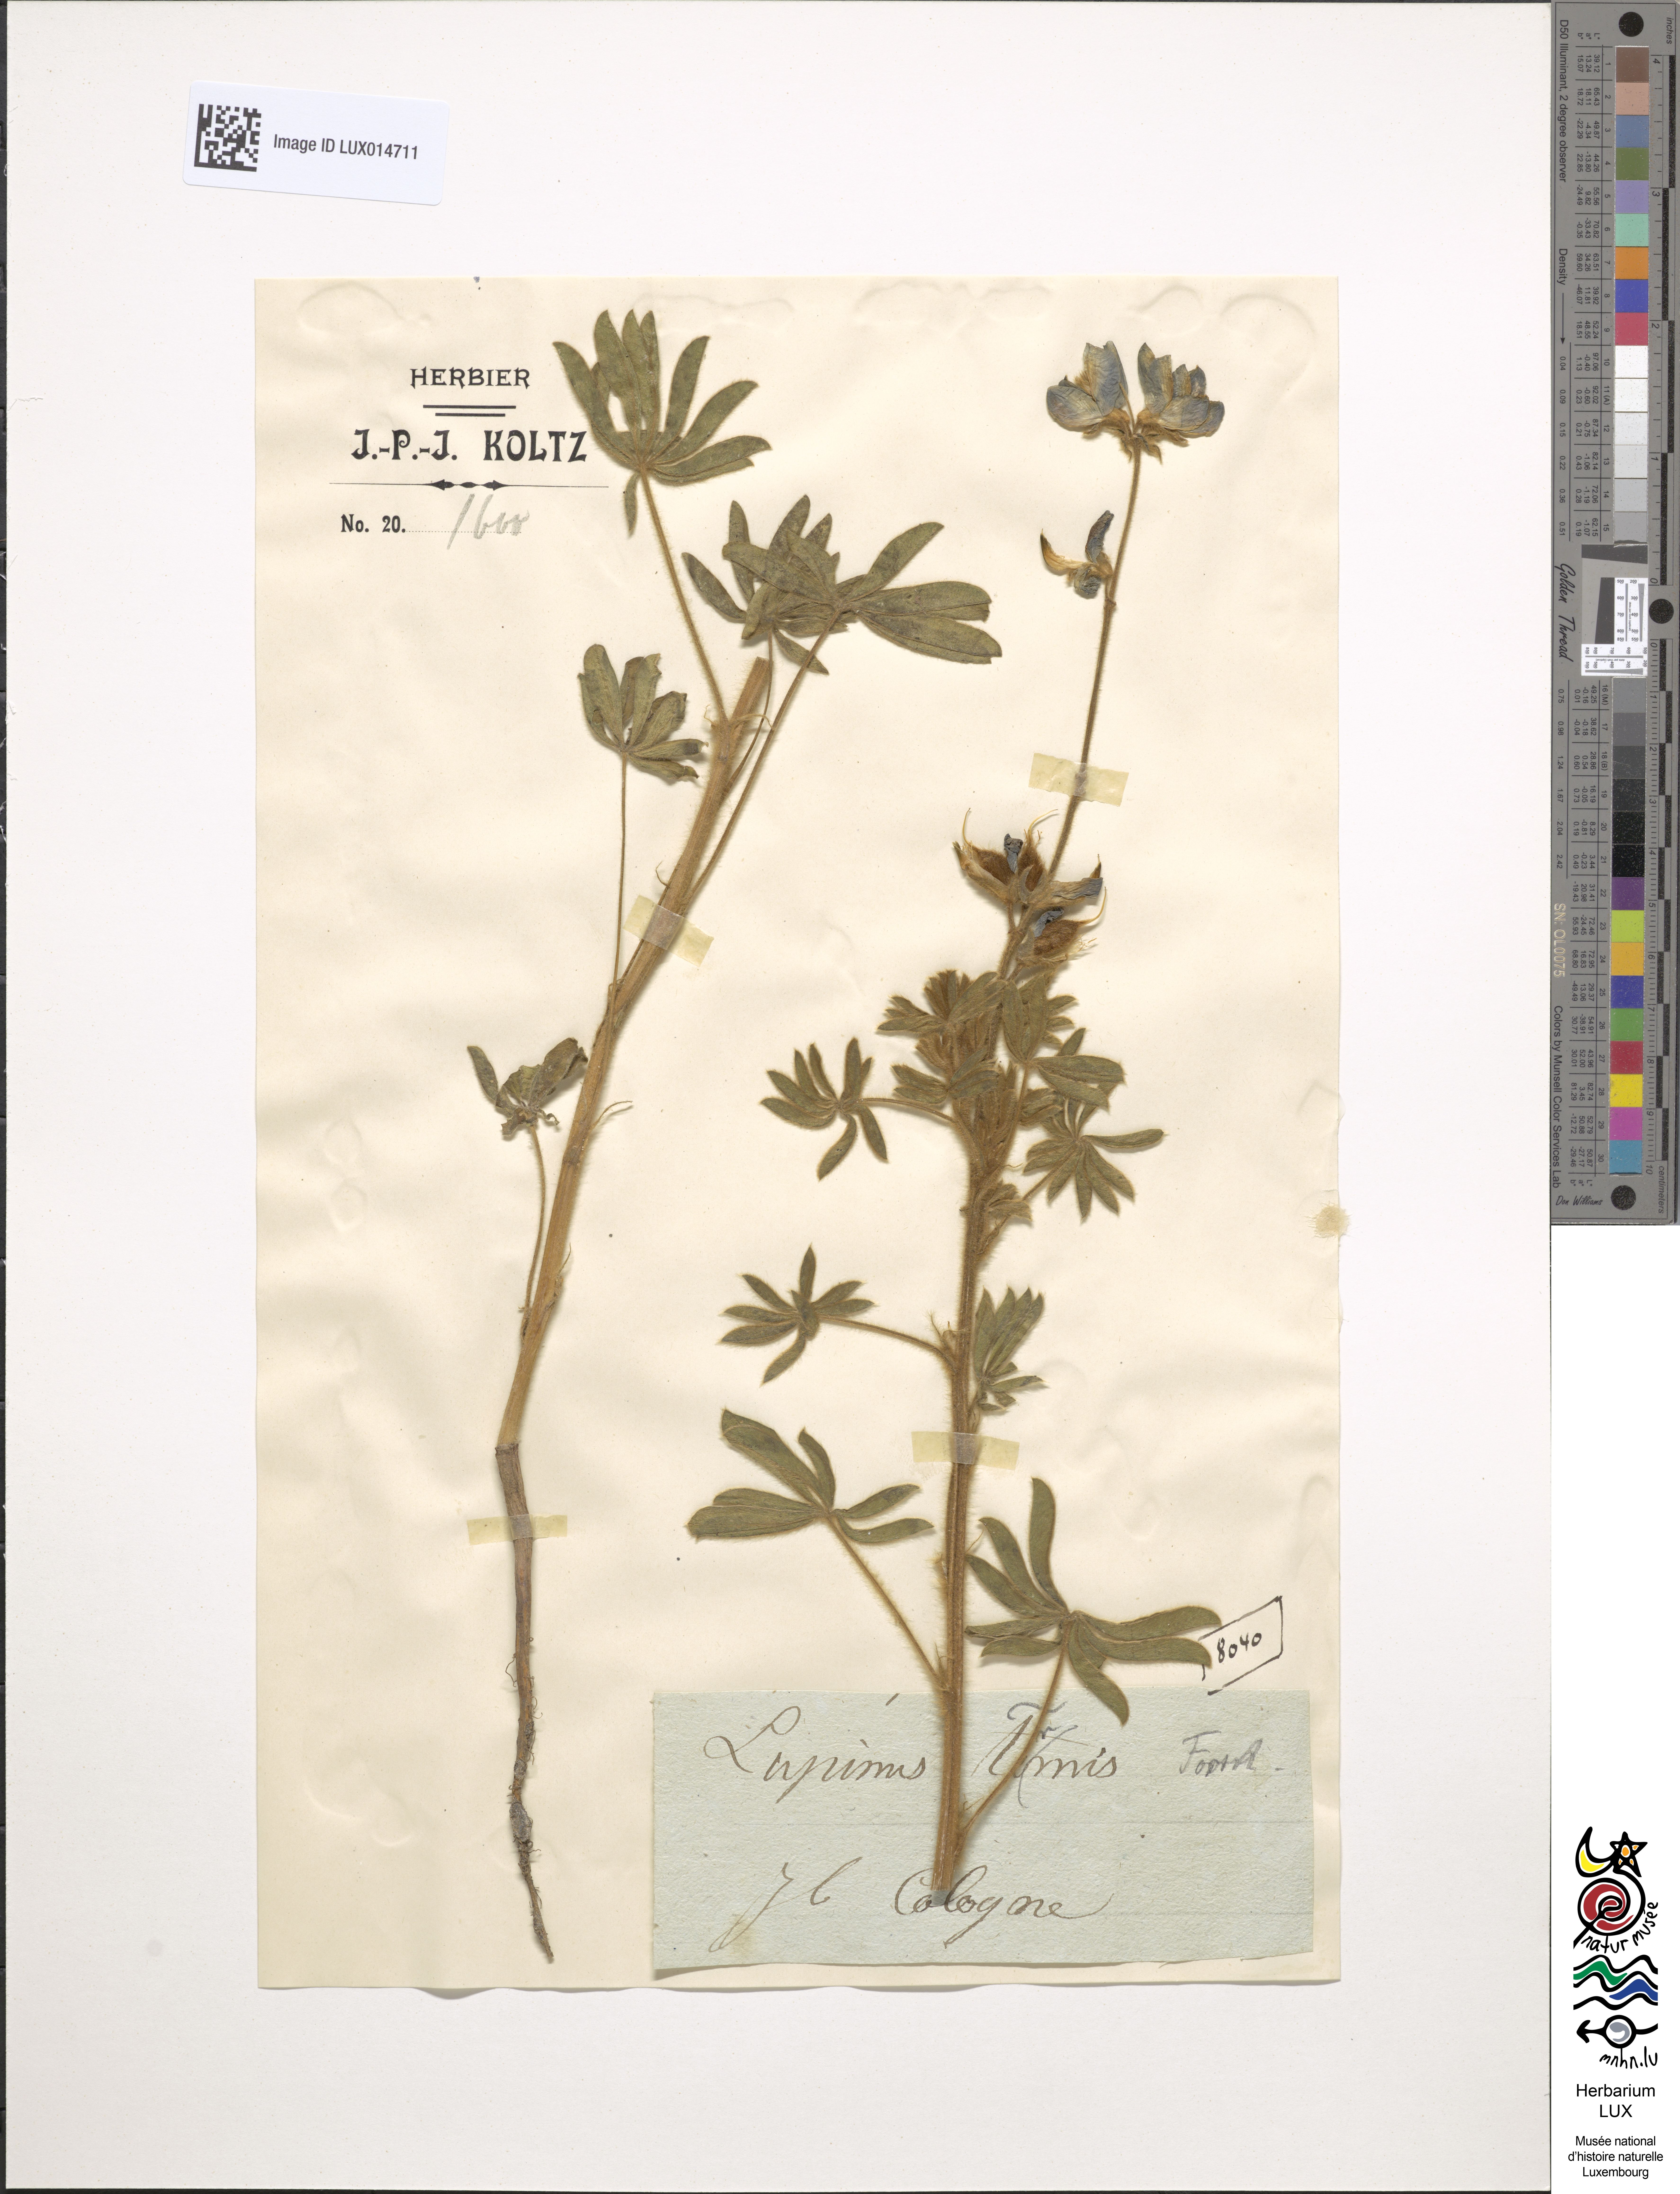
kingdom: Plantae
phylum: Tracheophyta
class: Magnoliopsida
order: Fabales
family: Fabaceae
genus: Lupinus
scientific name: Lupinus albus
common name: White lupin
